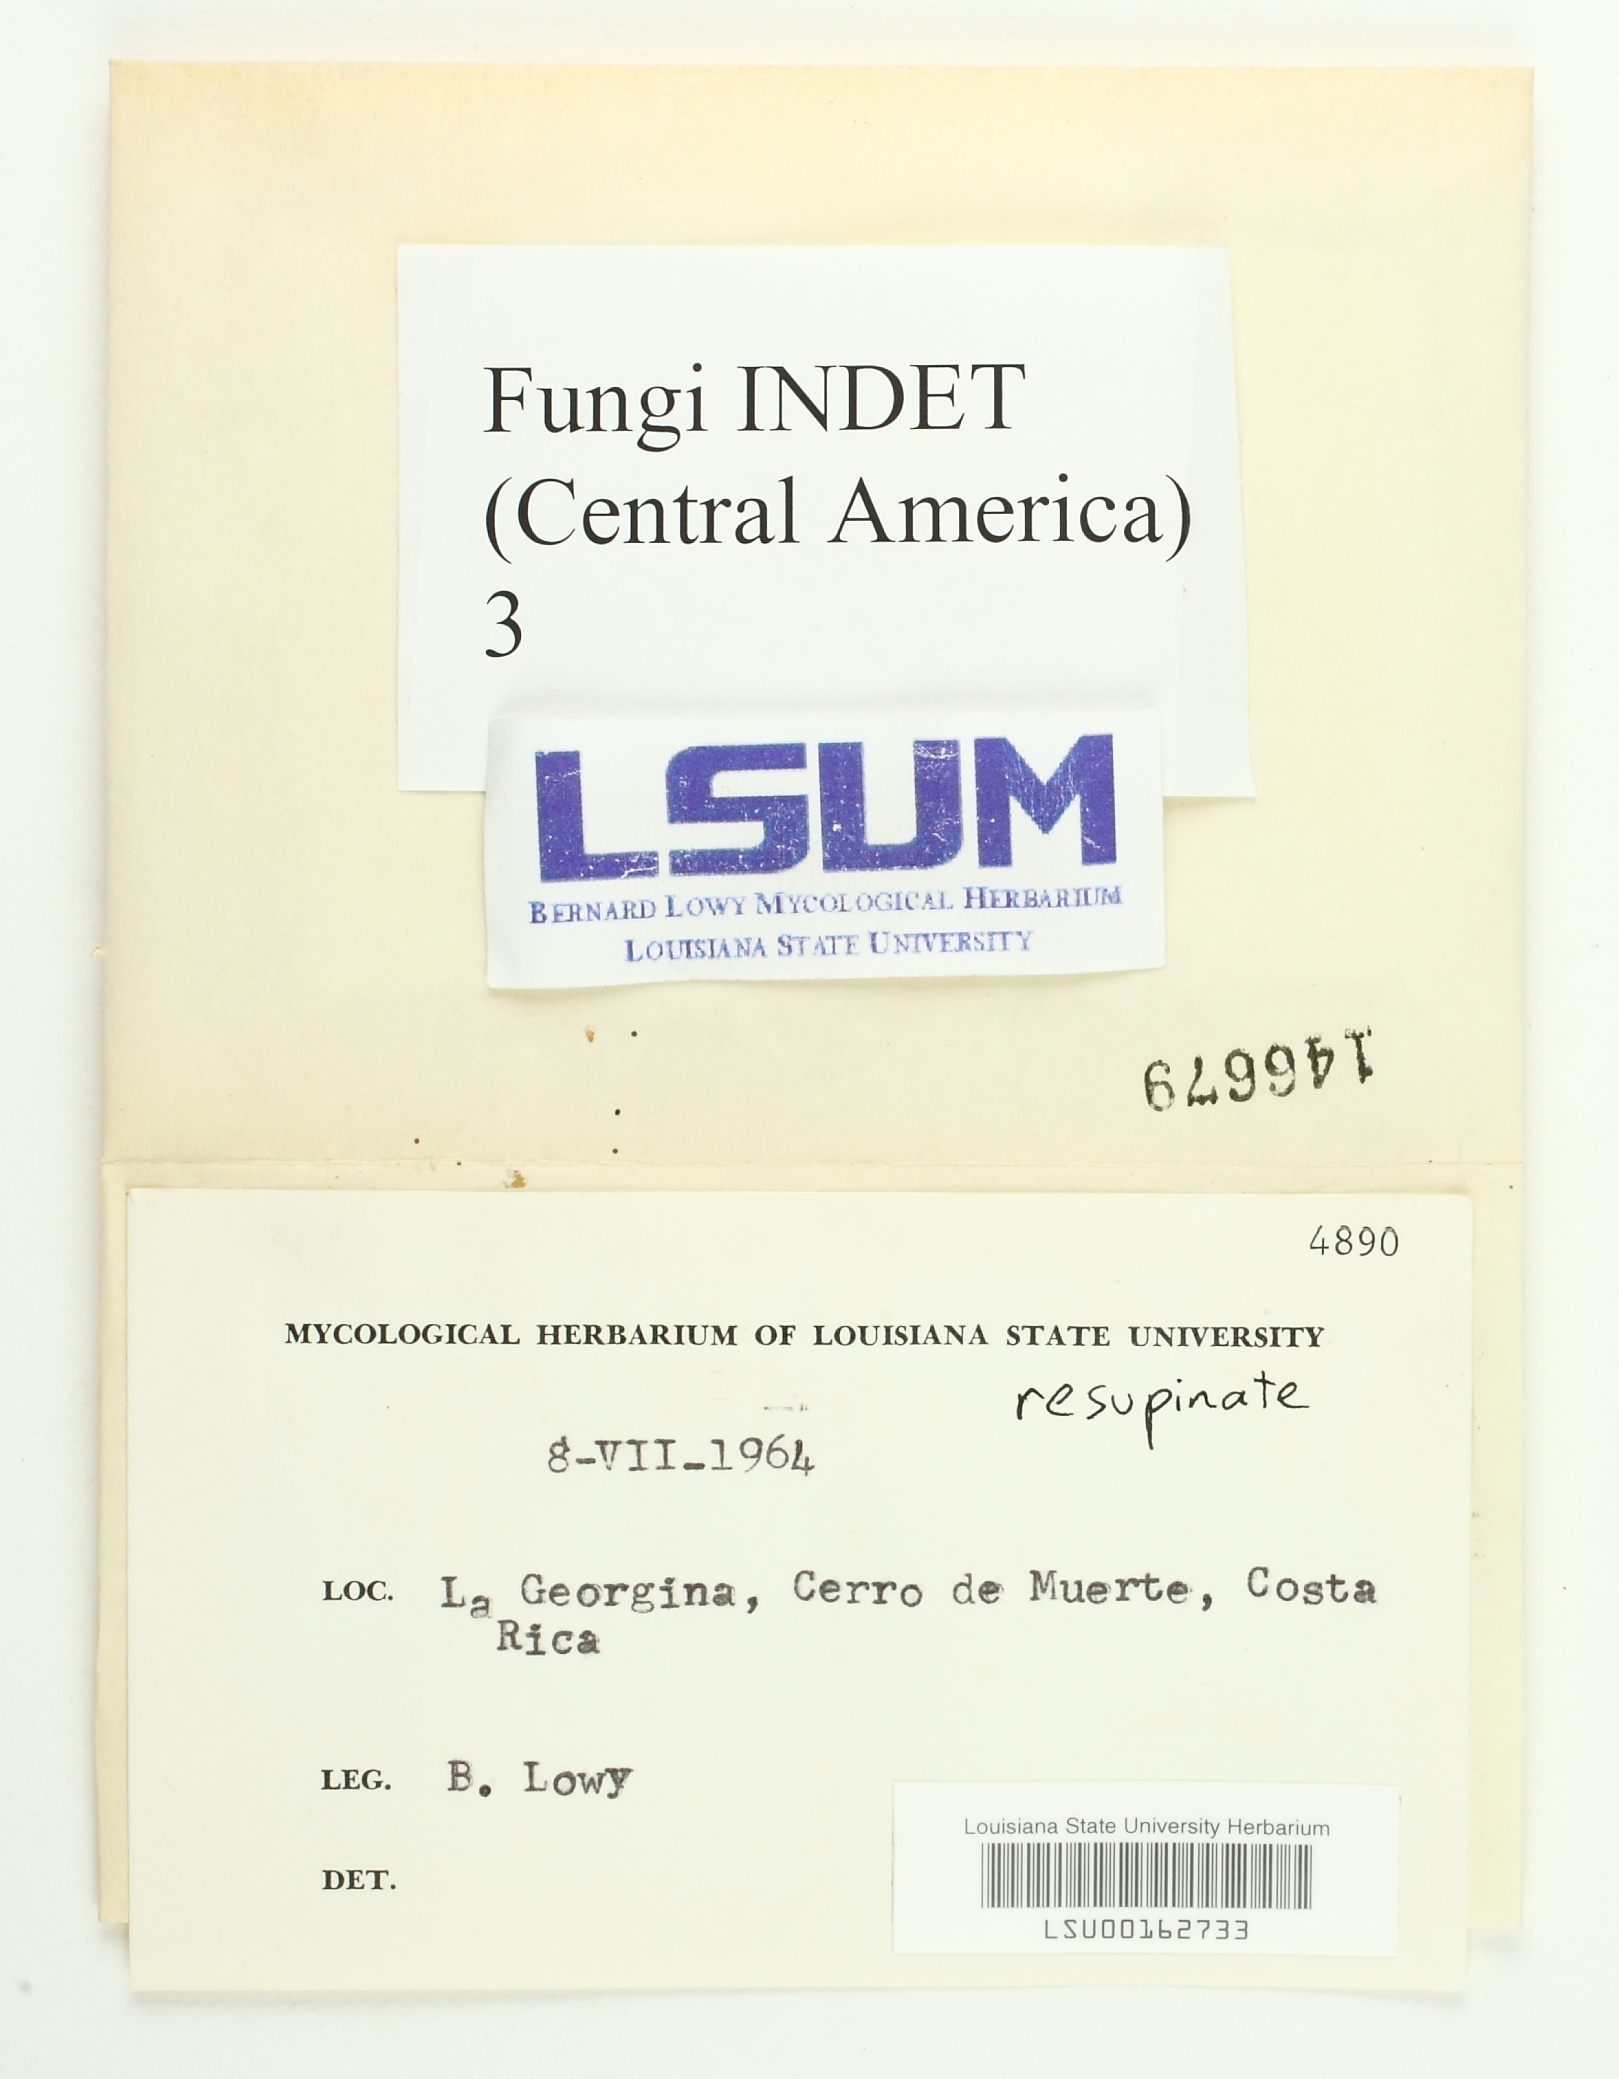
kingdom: Fungi
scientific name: Fungi
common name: Fungi
